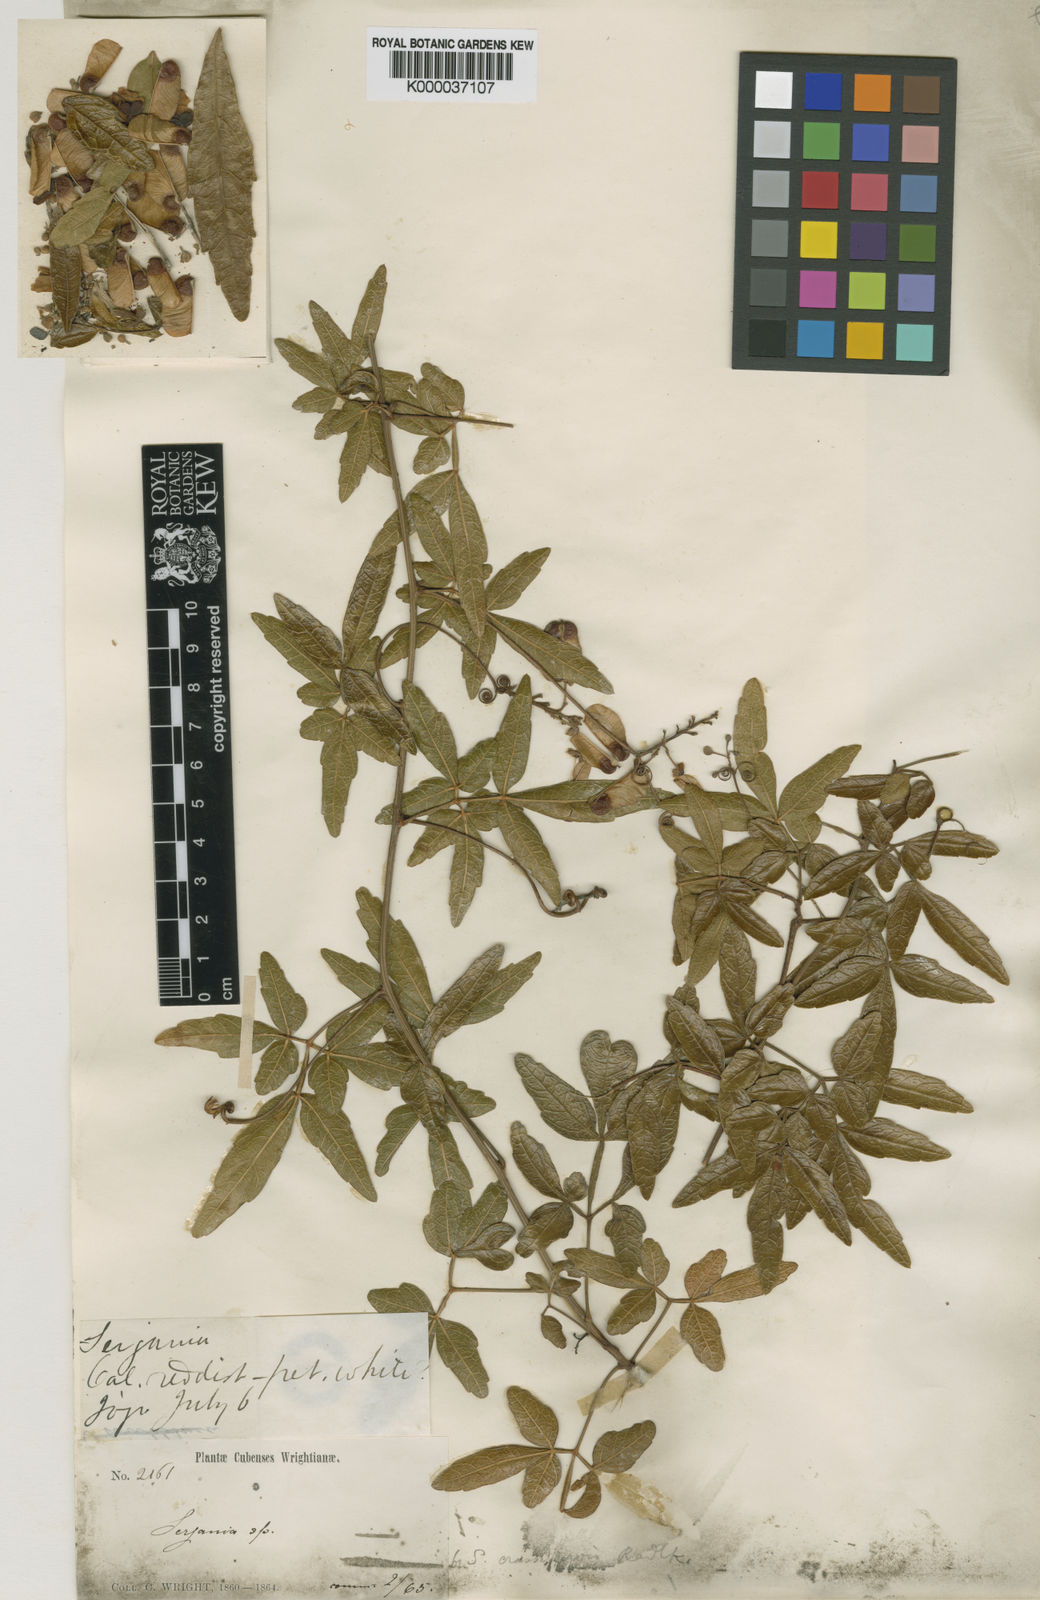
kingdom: Plantae
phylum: Tracheophyta
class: Magnoliopsida
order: Sapindales
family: Sapindaceae
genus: Serjania
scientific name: Serjania crassinervis
